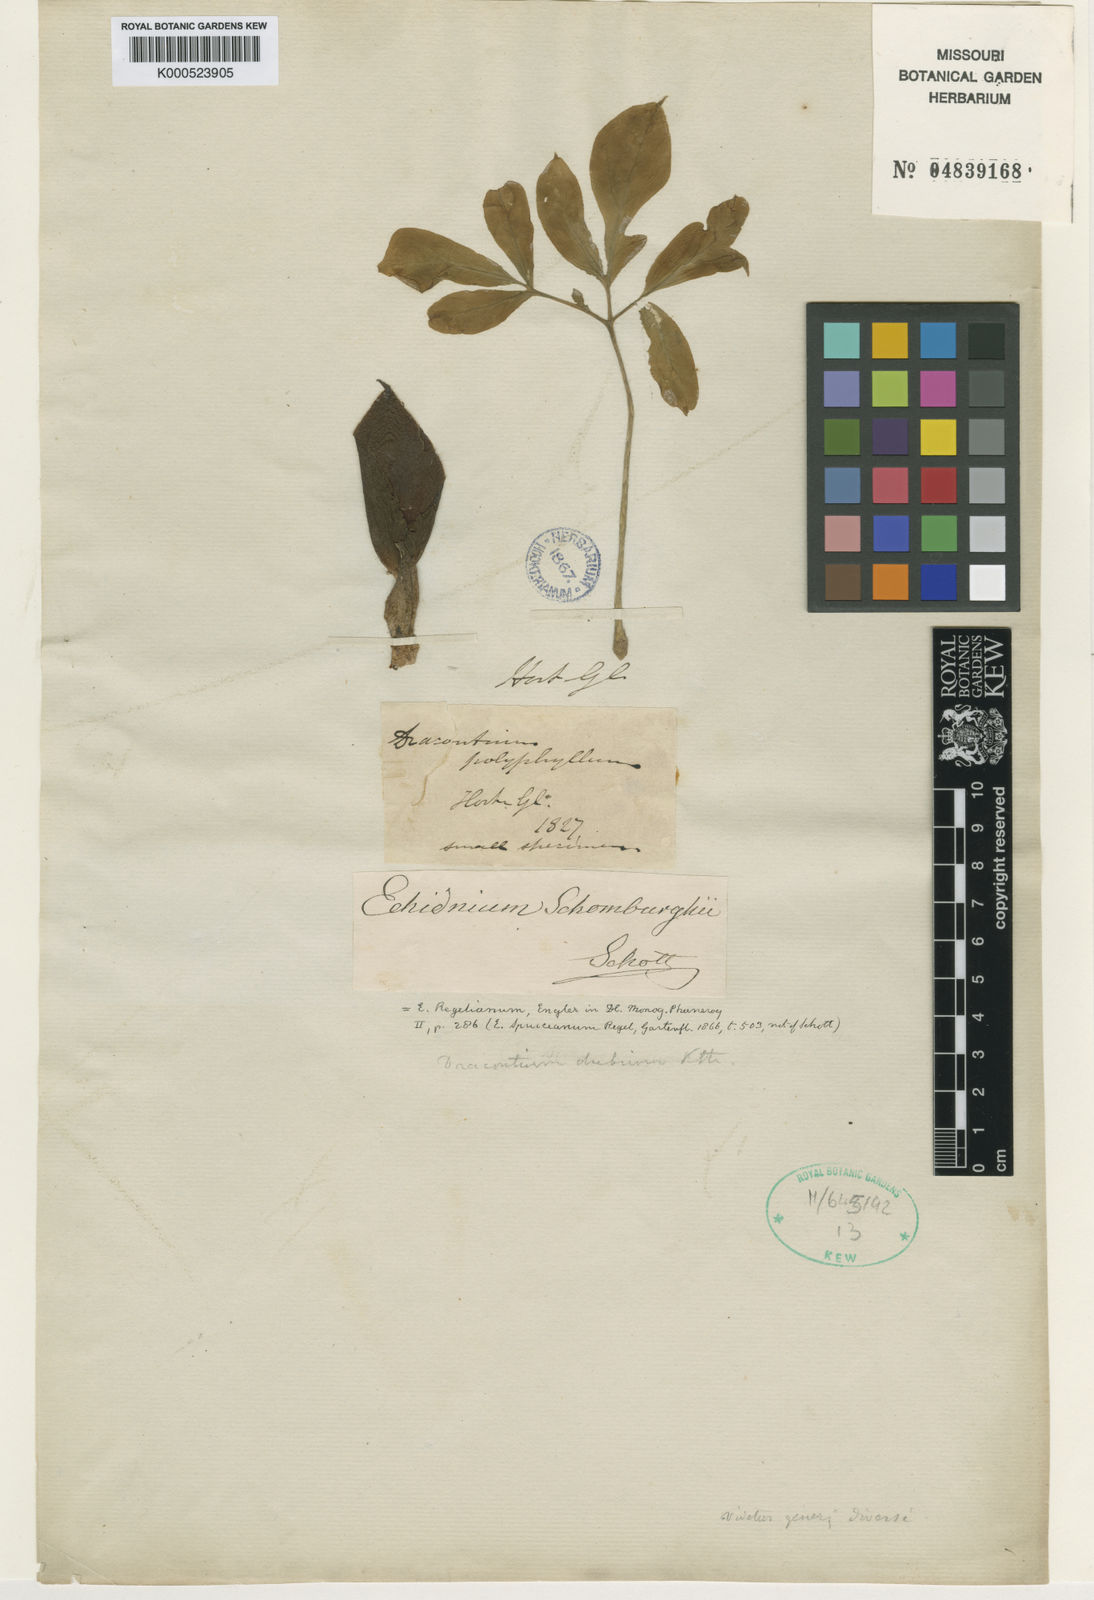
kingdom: Plantae
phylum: Tracheophyta
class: Liliopsida
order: Alismatales
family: Araceae
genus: Dracontium
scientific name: Dracontium polyphyllum
